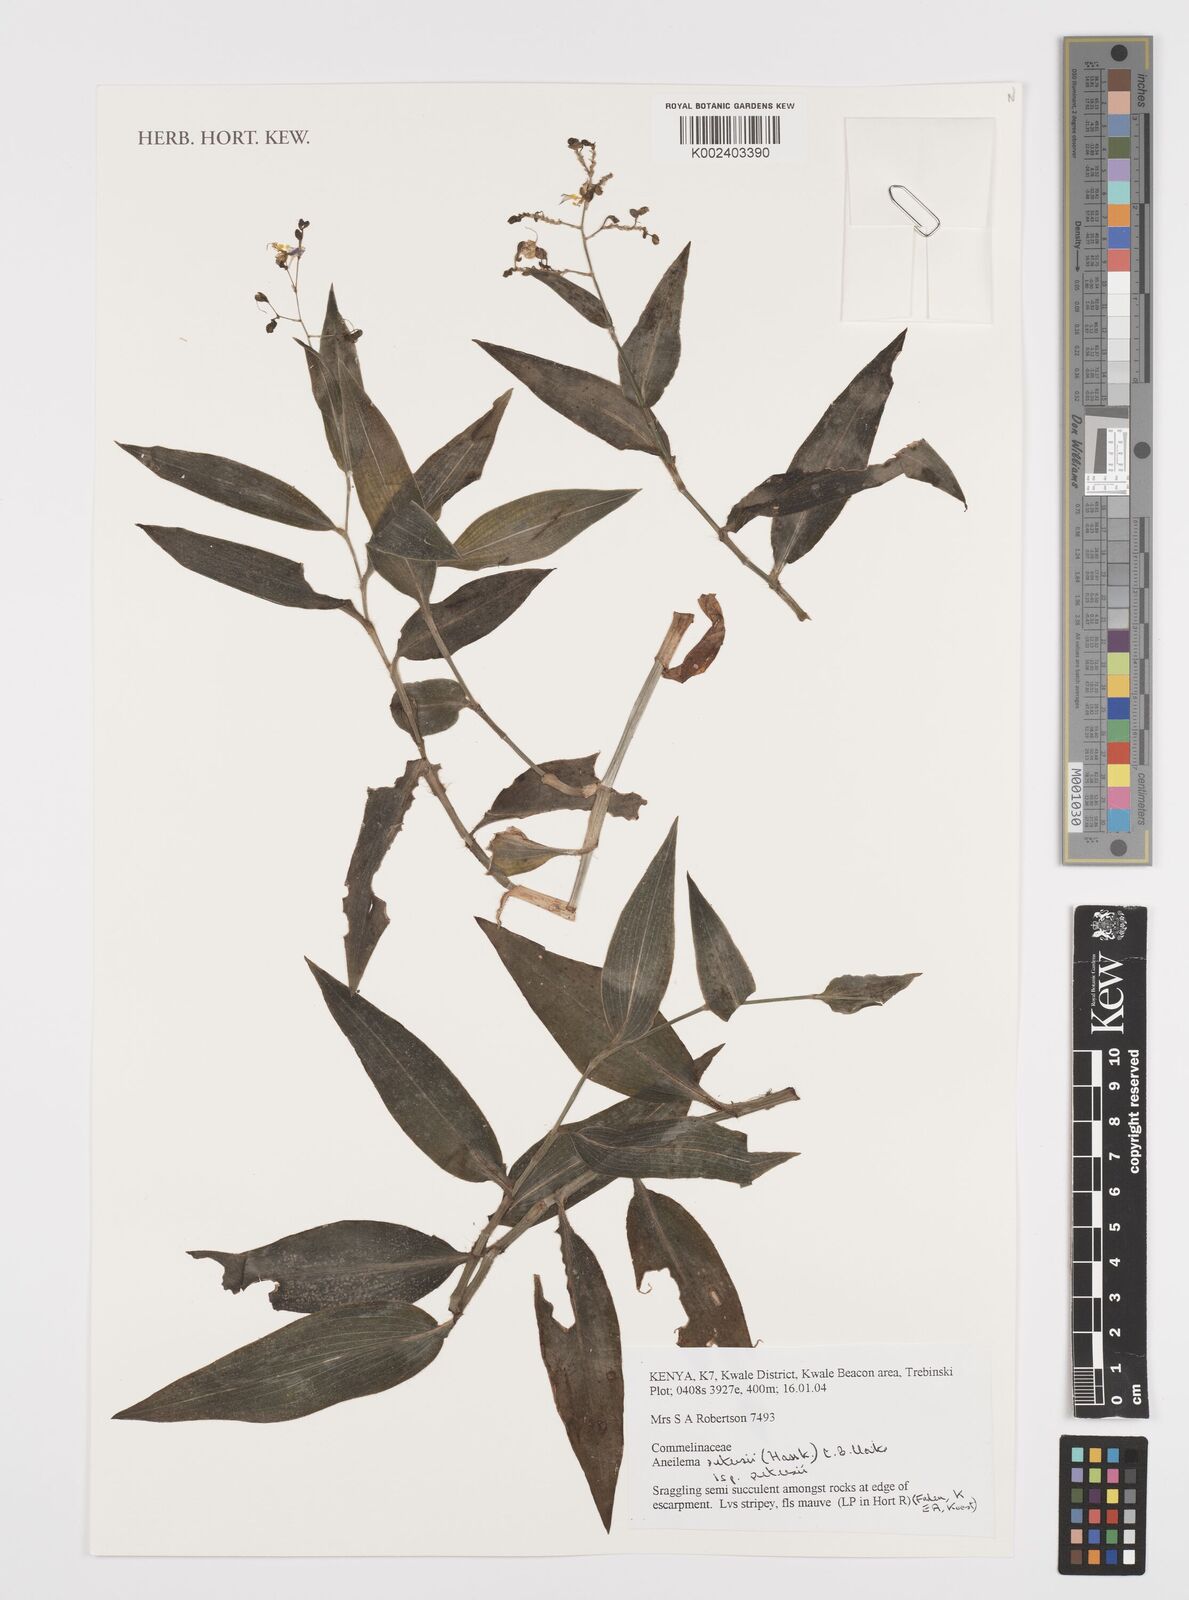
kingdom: Plantae
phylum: Tracheophyta
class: Liliopsida
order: Commelinales
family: Commelinaceae
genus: Aneilema
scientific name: Aneilema petersii
